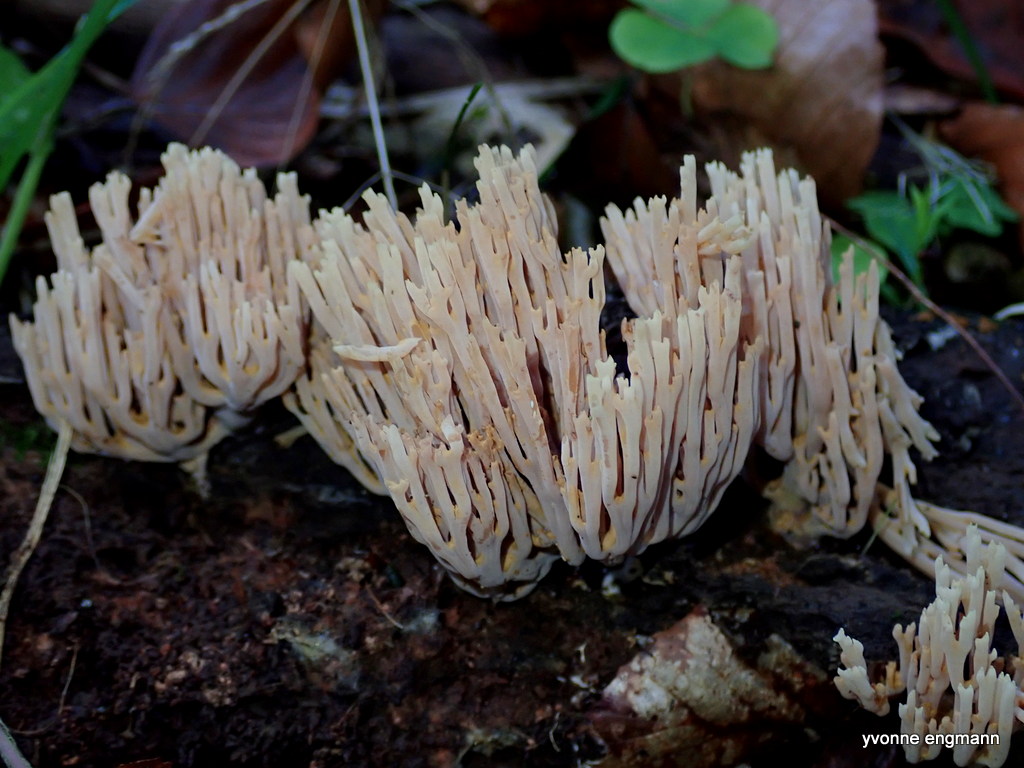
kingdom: Fungi
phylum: Basidiomycota
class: Agaricomycetes
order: Gomphales
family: Gomphaceae
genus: Ramaria
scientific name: Ramaria stricta
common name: rank koralsvamp
